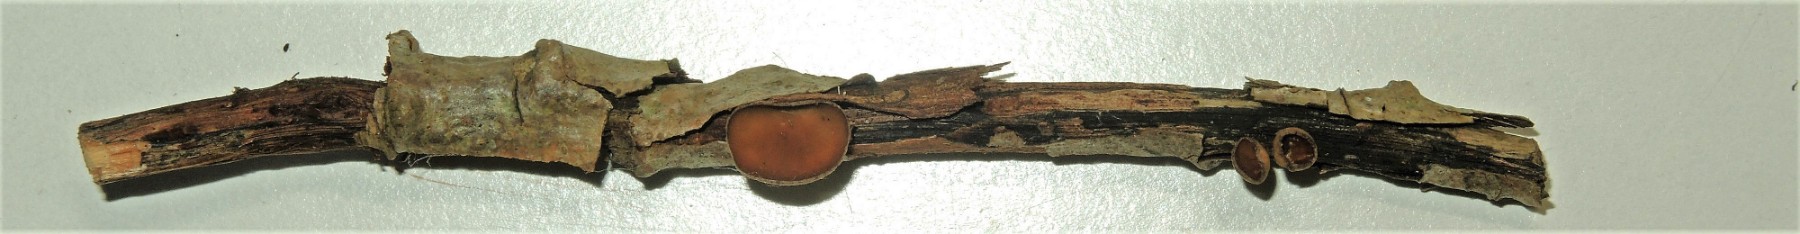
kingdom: Fungi
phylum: Ascomycota
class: Leotiomycetes
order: Helotiales
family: Rutstroemiaceae
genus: Rutstroemia
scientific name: Rutstroemia firma
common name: gren-brunskive
